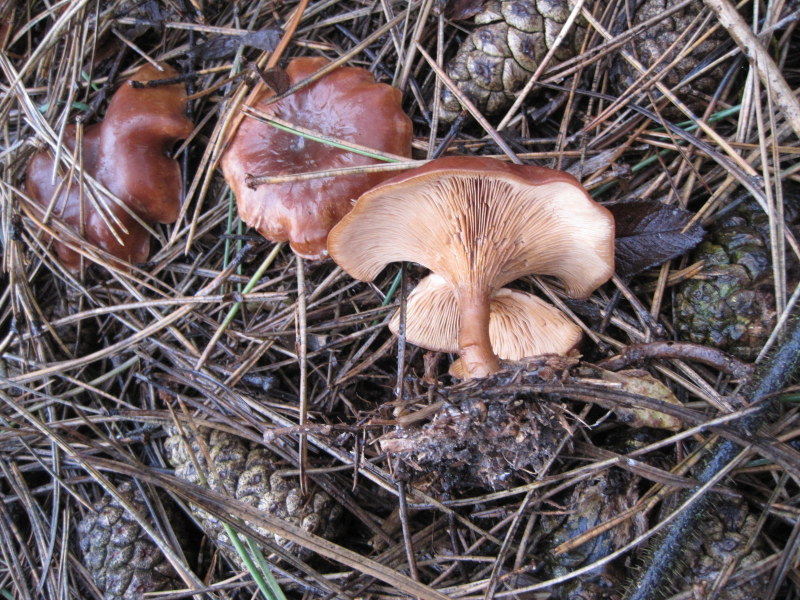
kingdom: Fungi
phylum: Basidiomycota
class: Agaricomycetes
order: Agaricales
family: Tricholomataceae
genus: Paralepista
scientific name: Paralepista flaccida
